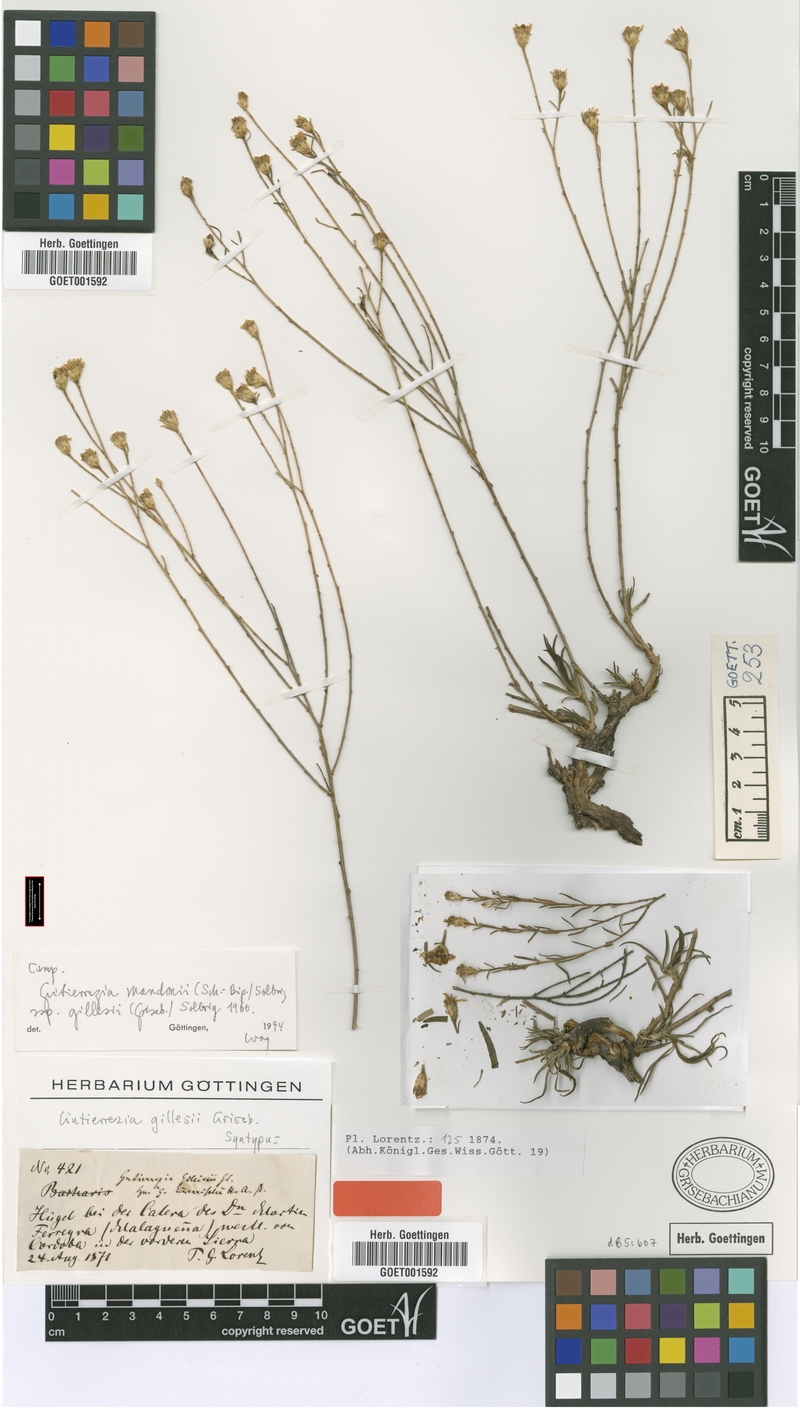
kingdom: Plantae
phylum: Tracheophyta
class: Magnoliopsida
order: Asterales
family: Asteraceae
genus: Gutierrezia
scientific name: Gutierrezia gilliesii
